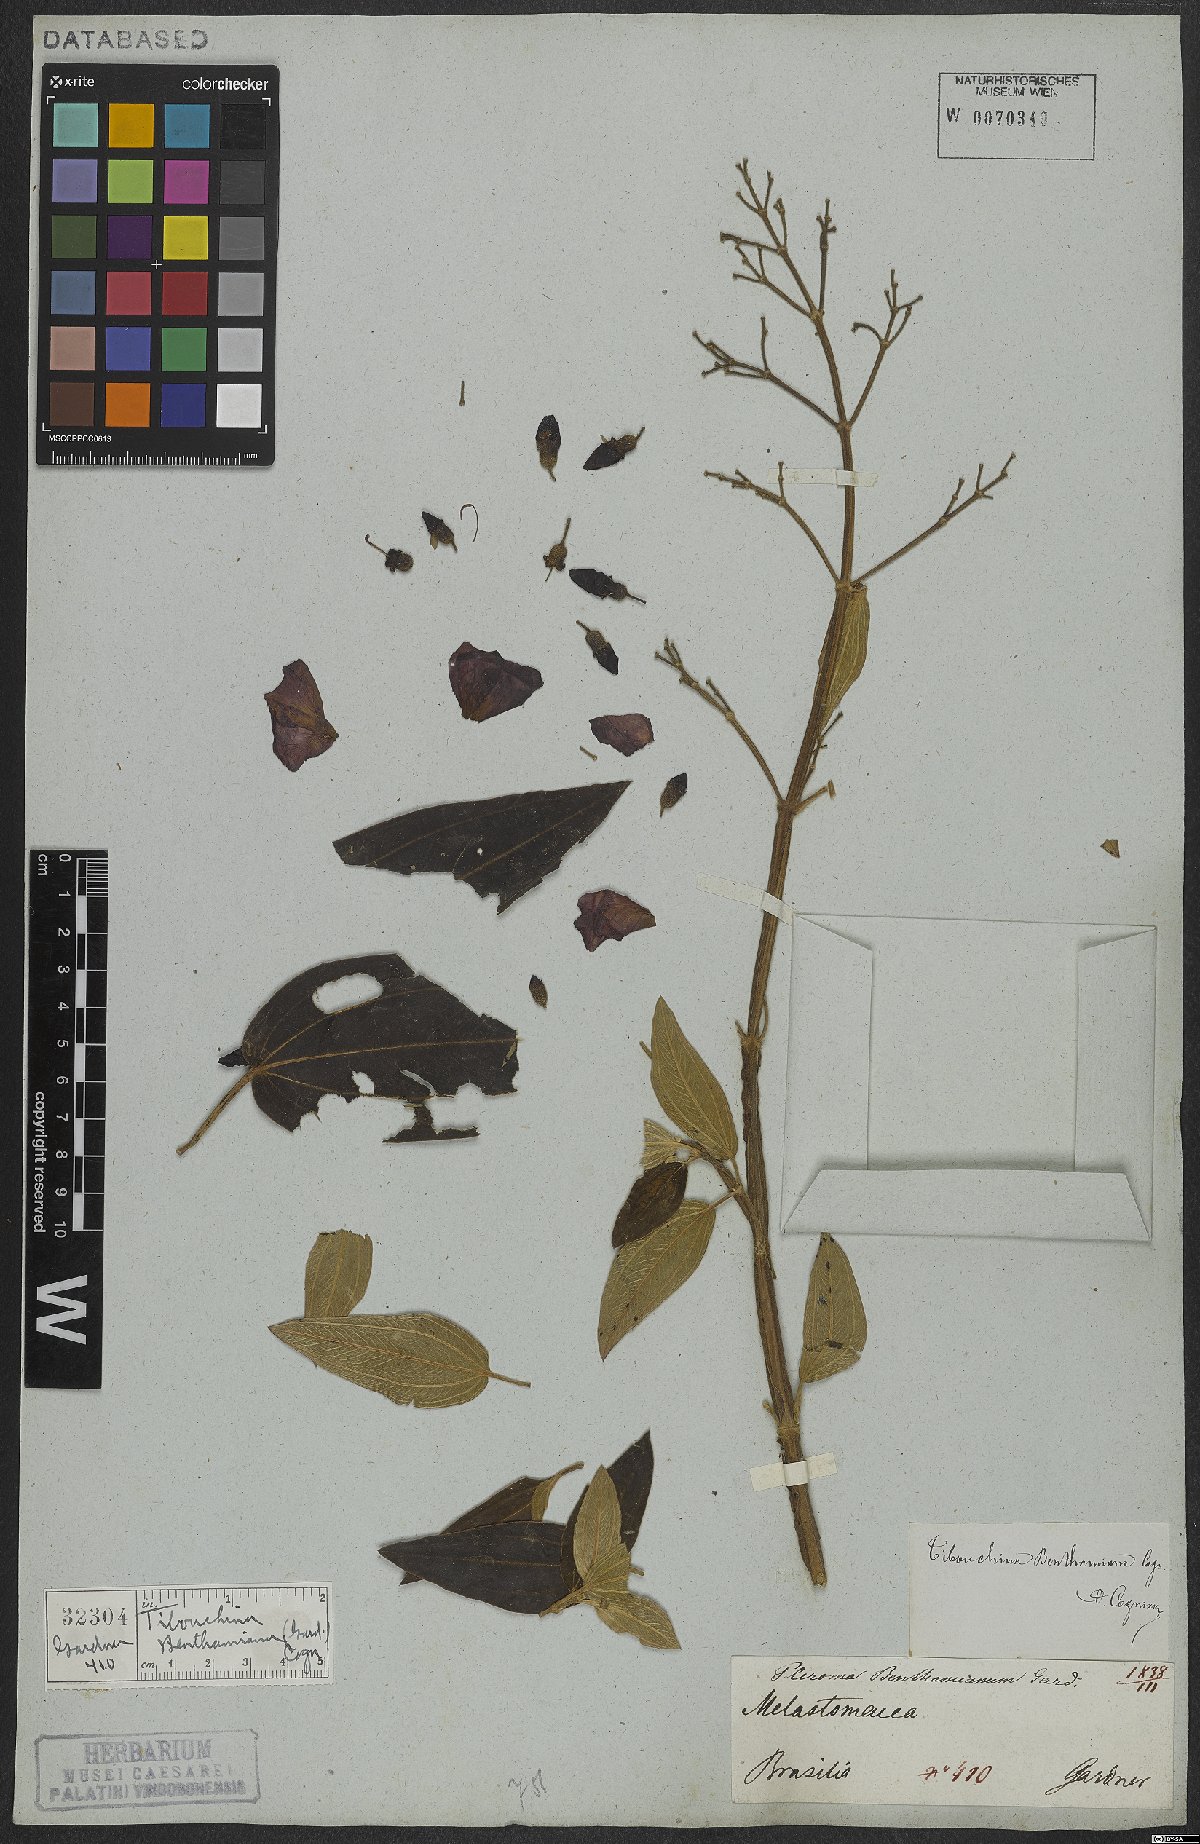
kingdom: Plantae
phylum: Tracheophyta
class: Magnoliopsida
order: Myrtales
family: Melastomataceae
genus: Pleroma
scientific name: Pleroma benthamianum
